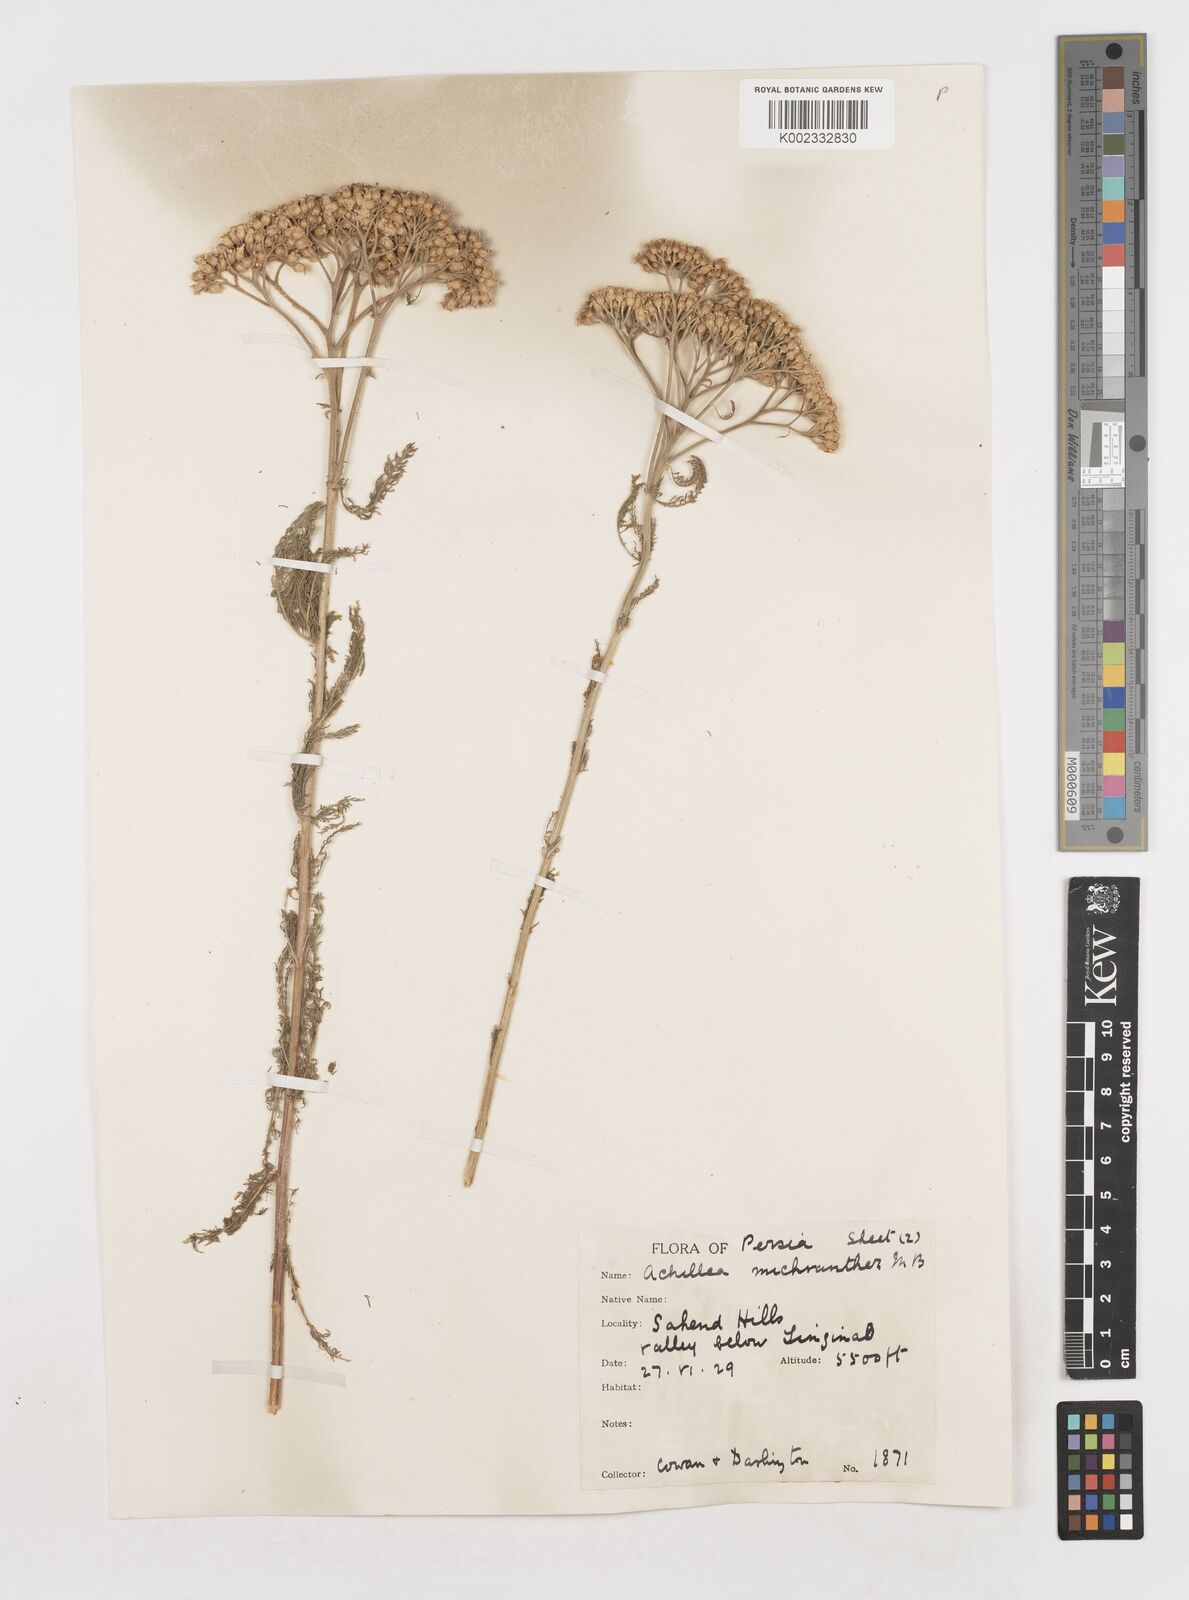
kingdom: Plantae
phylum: Tracheophyta
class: Magnoliopsida
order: Asterales
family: Asteraceae
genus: Achillea
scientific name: Achillea arabica
